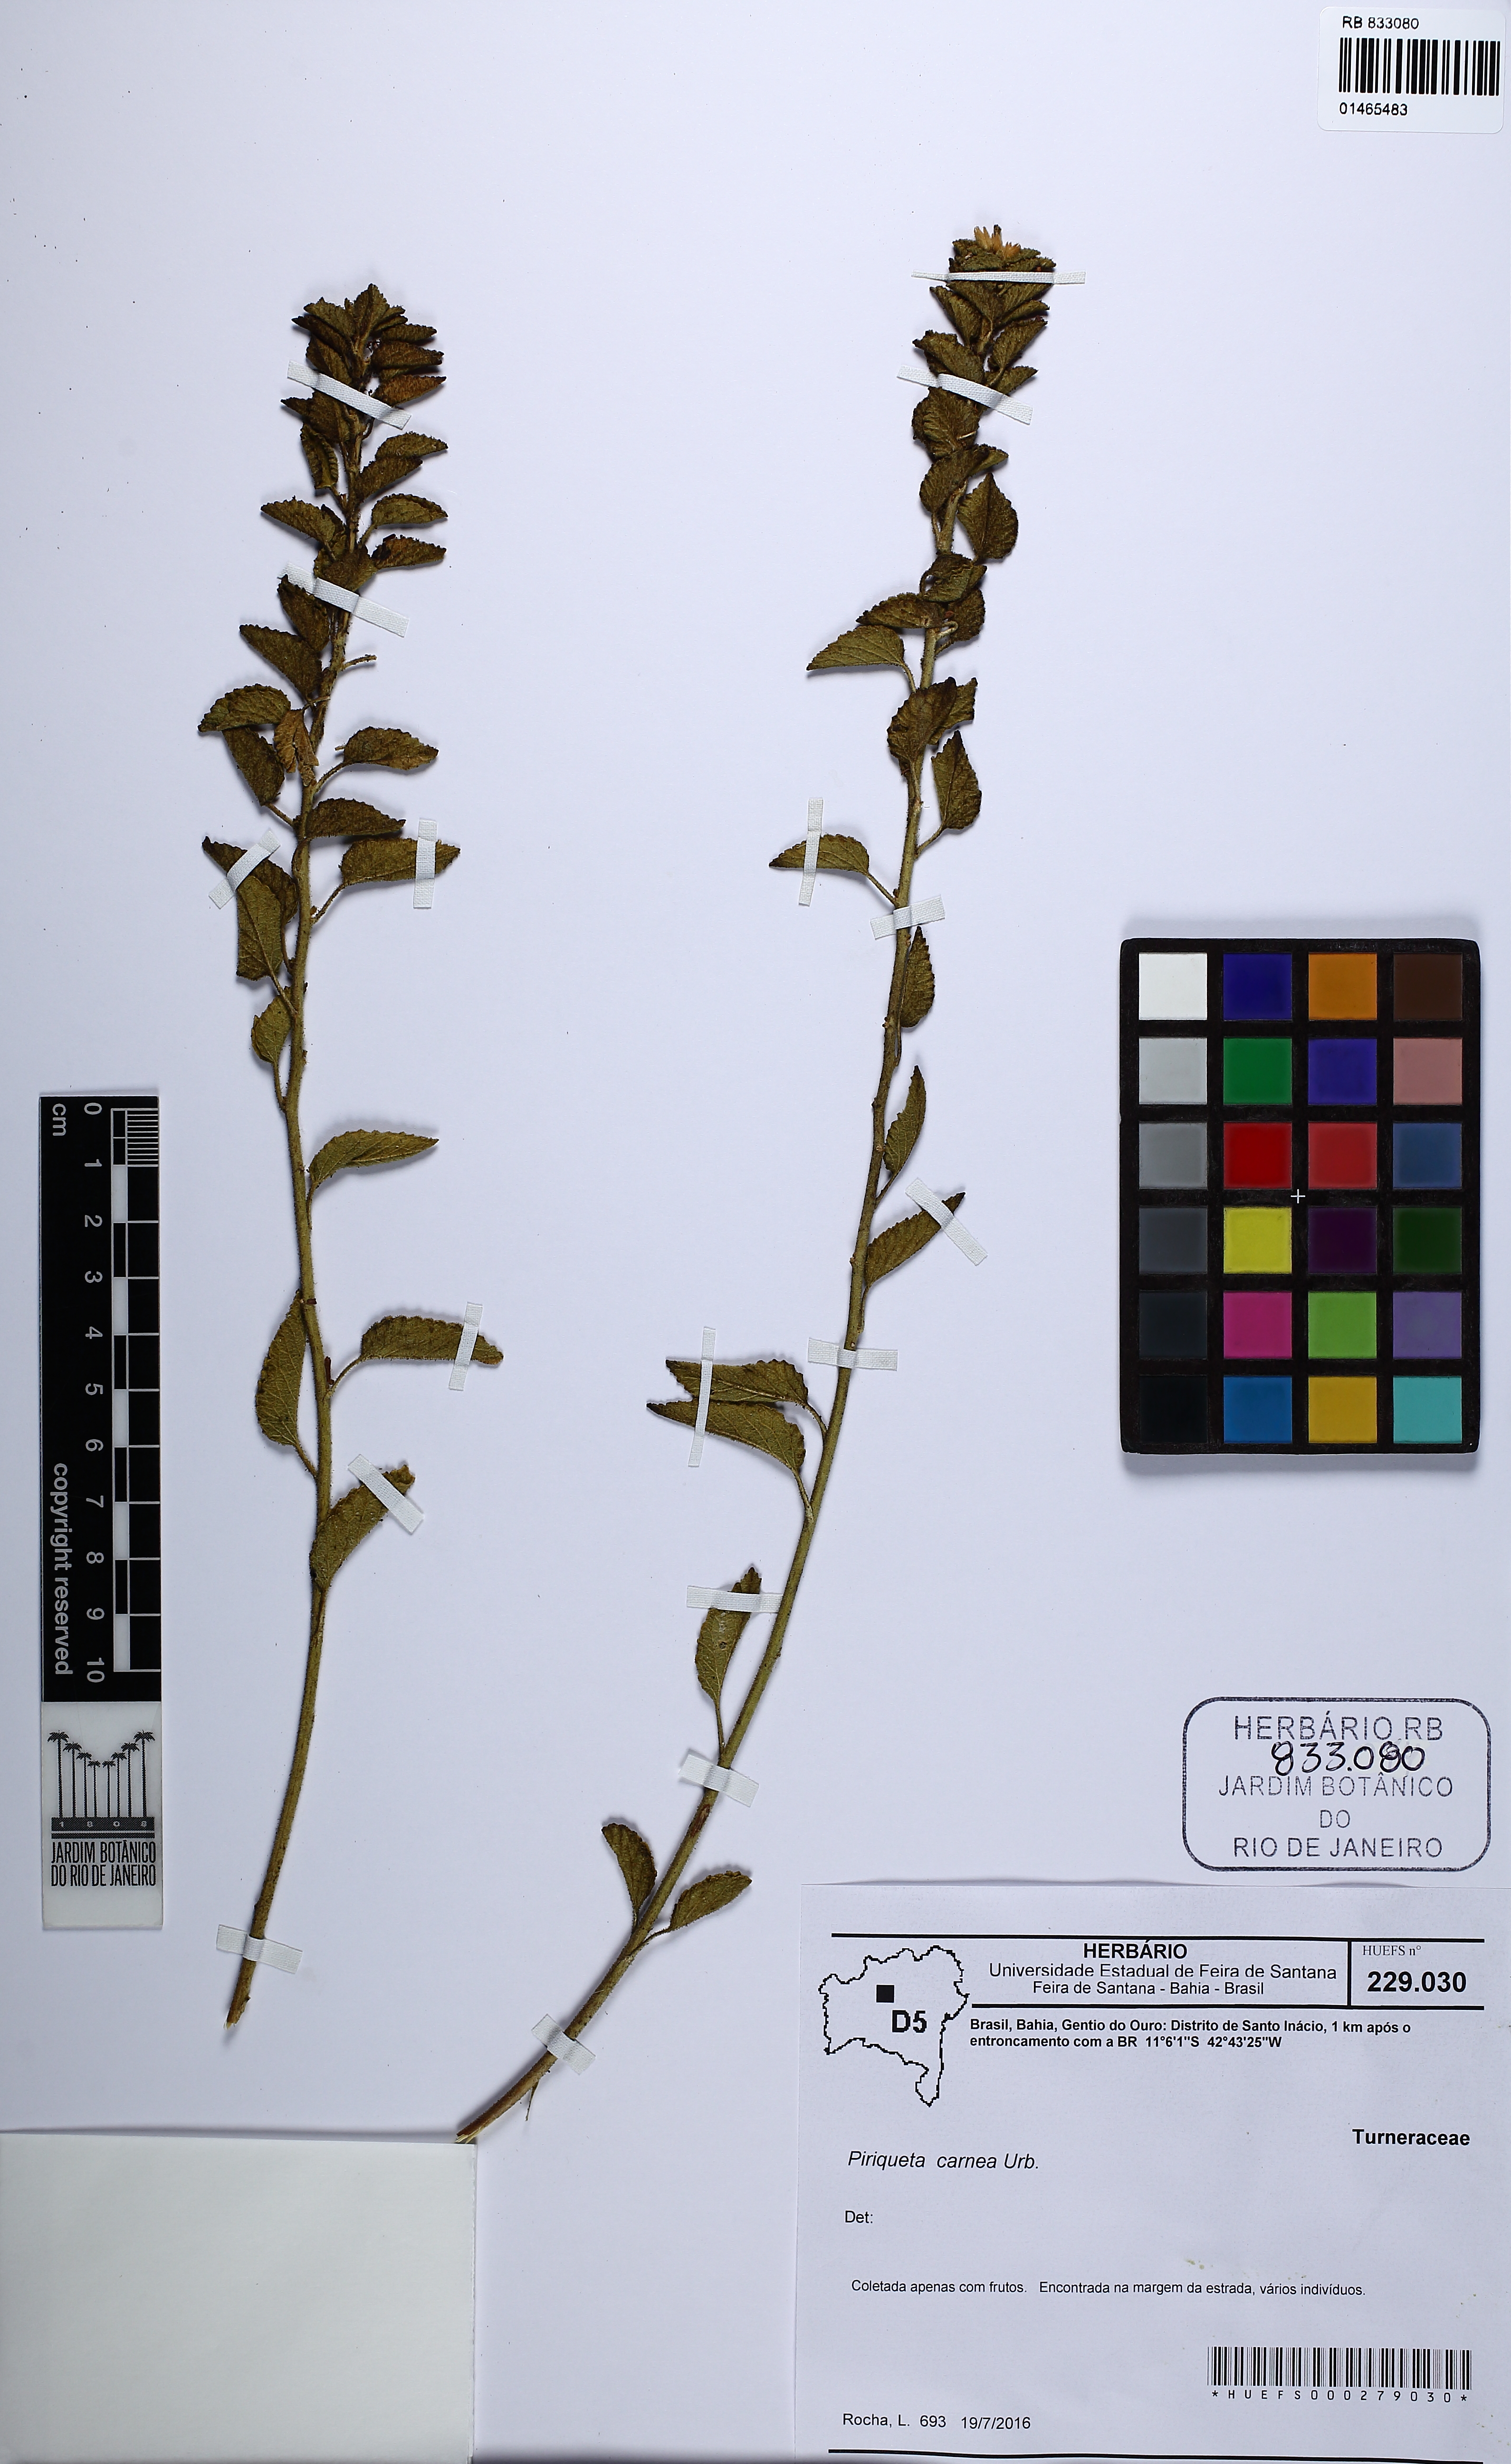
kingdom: Plantae
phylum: Tracheophyta
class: Magnoliopsida
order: Malpighiales
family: Turneraceae
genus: Piriqueta
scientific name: Piriqueta carnea
